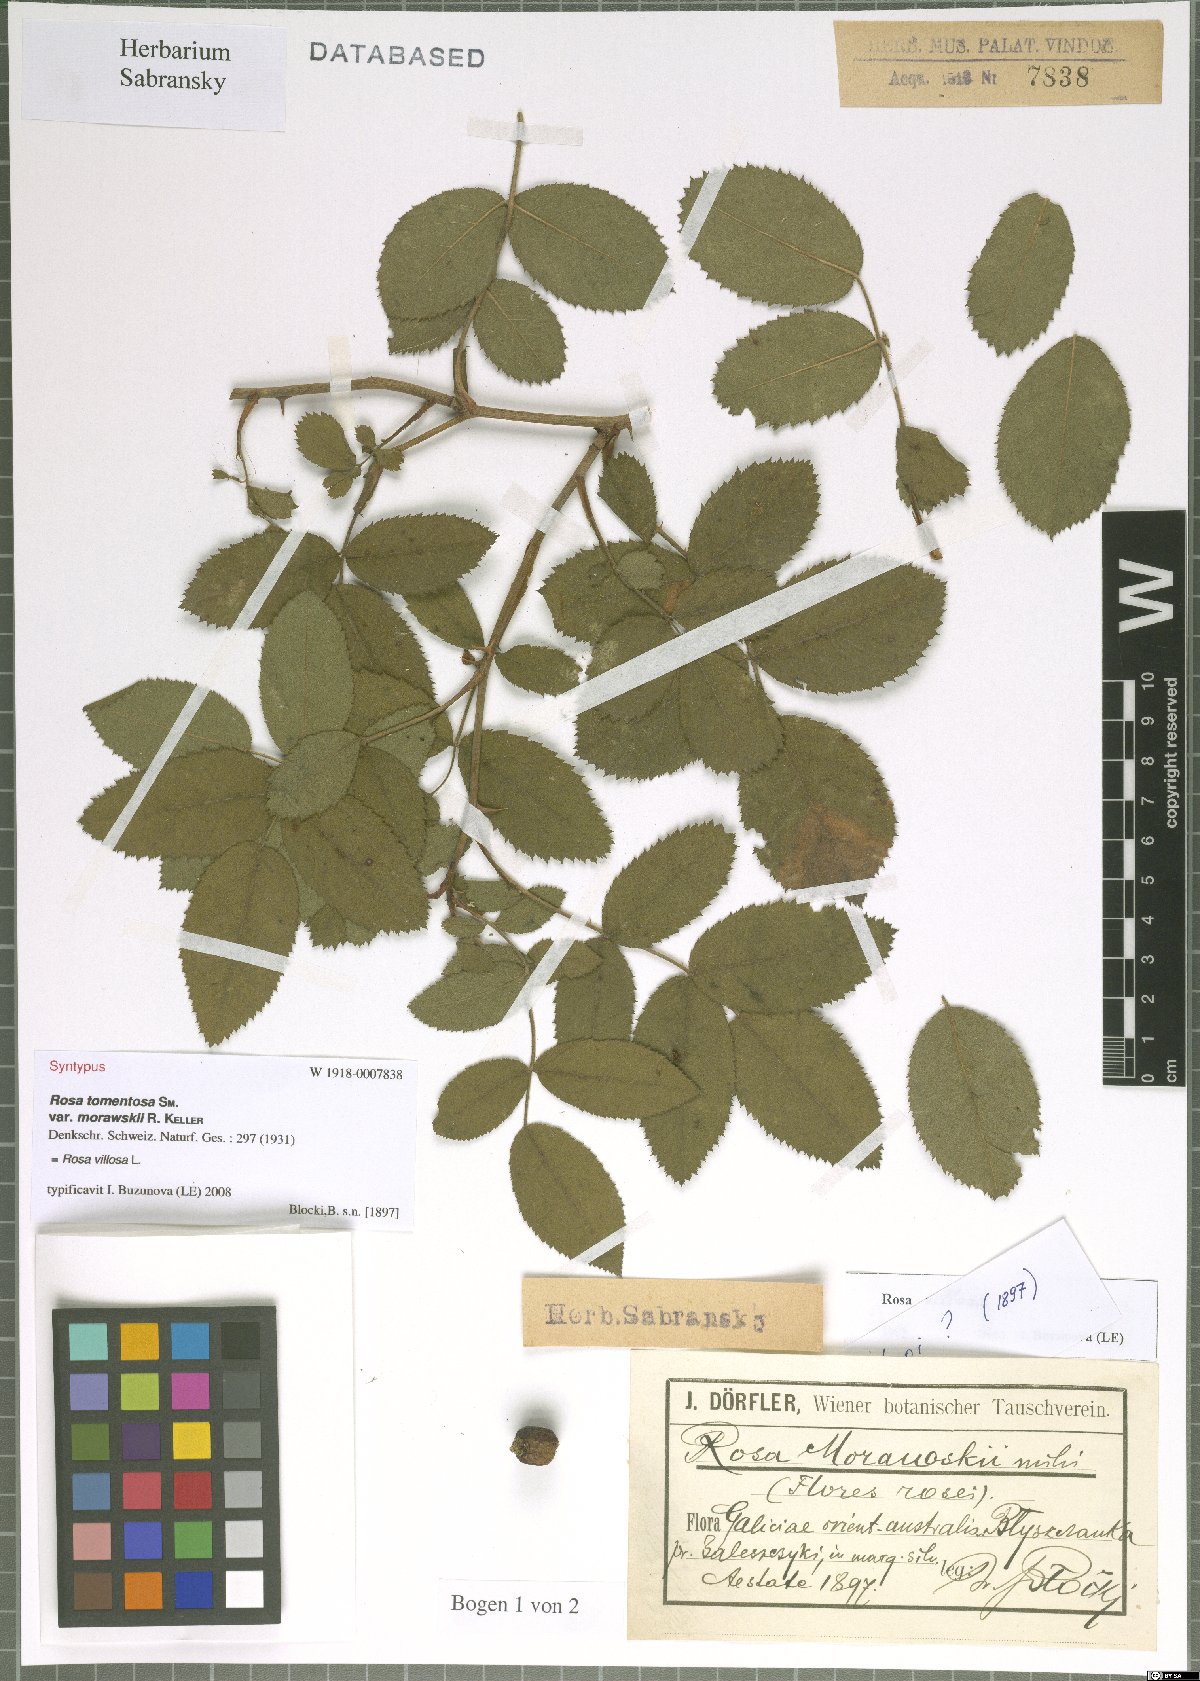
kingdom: Plantae
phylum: Tracheophyta
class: Magnoliopsida
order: Rosales
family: Rosaceae
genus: Rosa
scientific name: Rosa villosa
